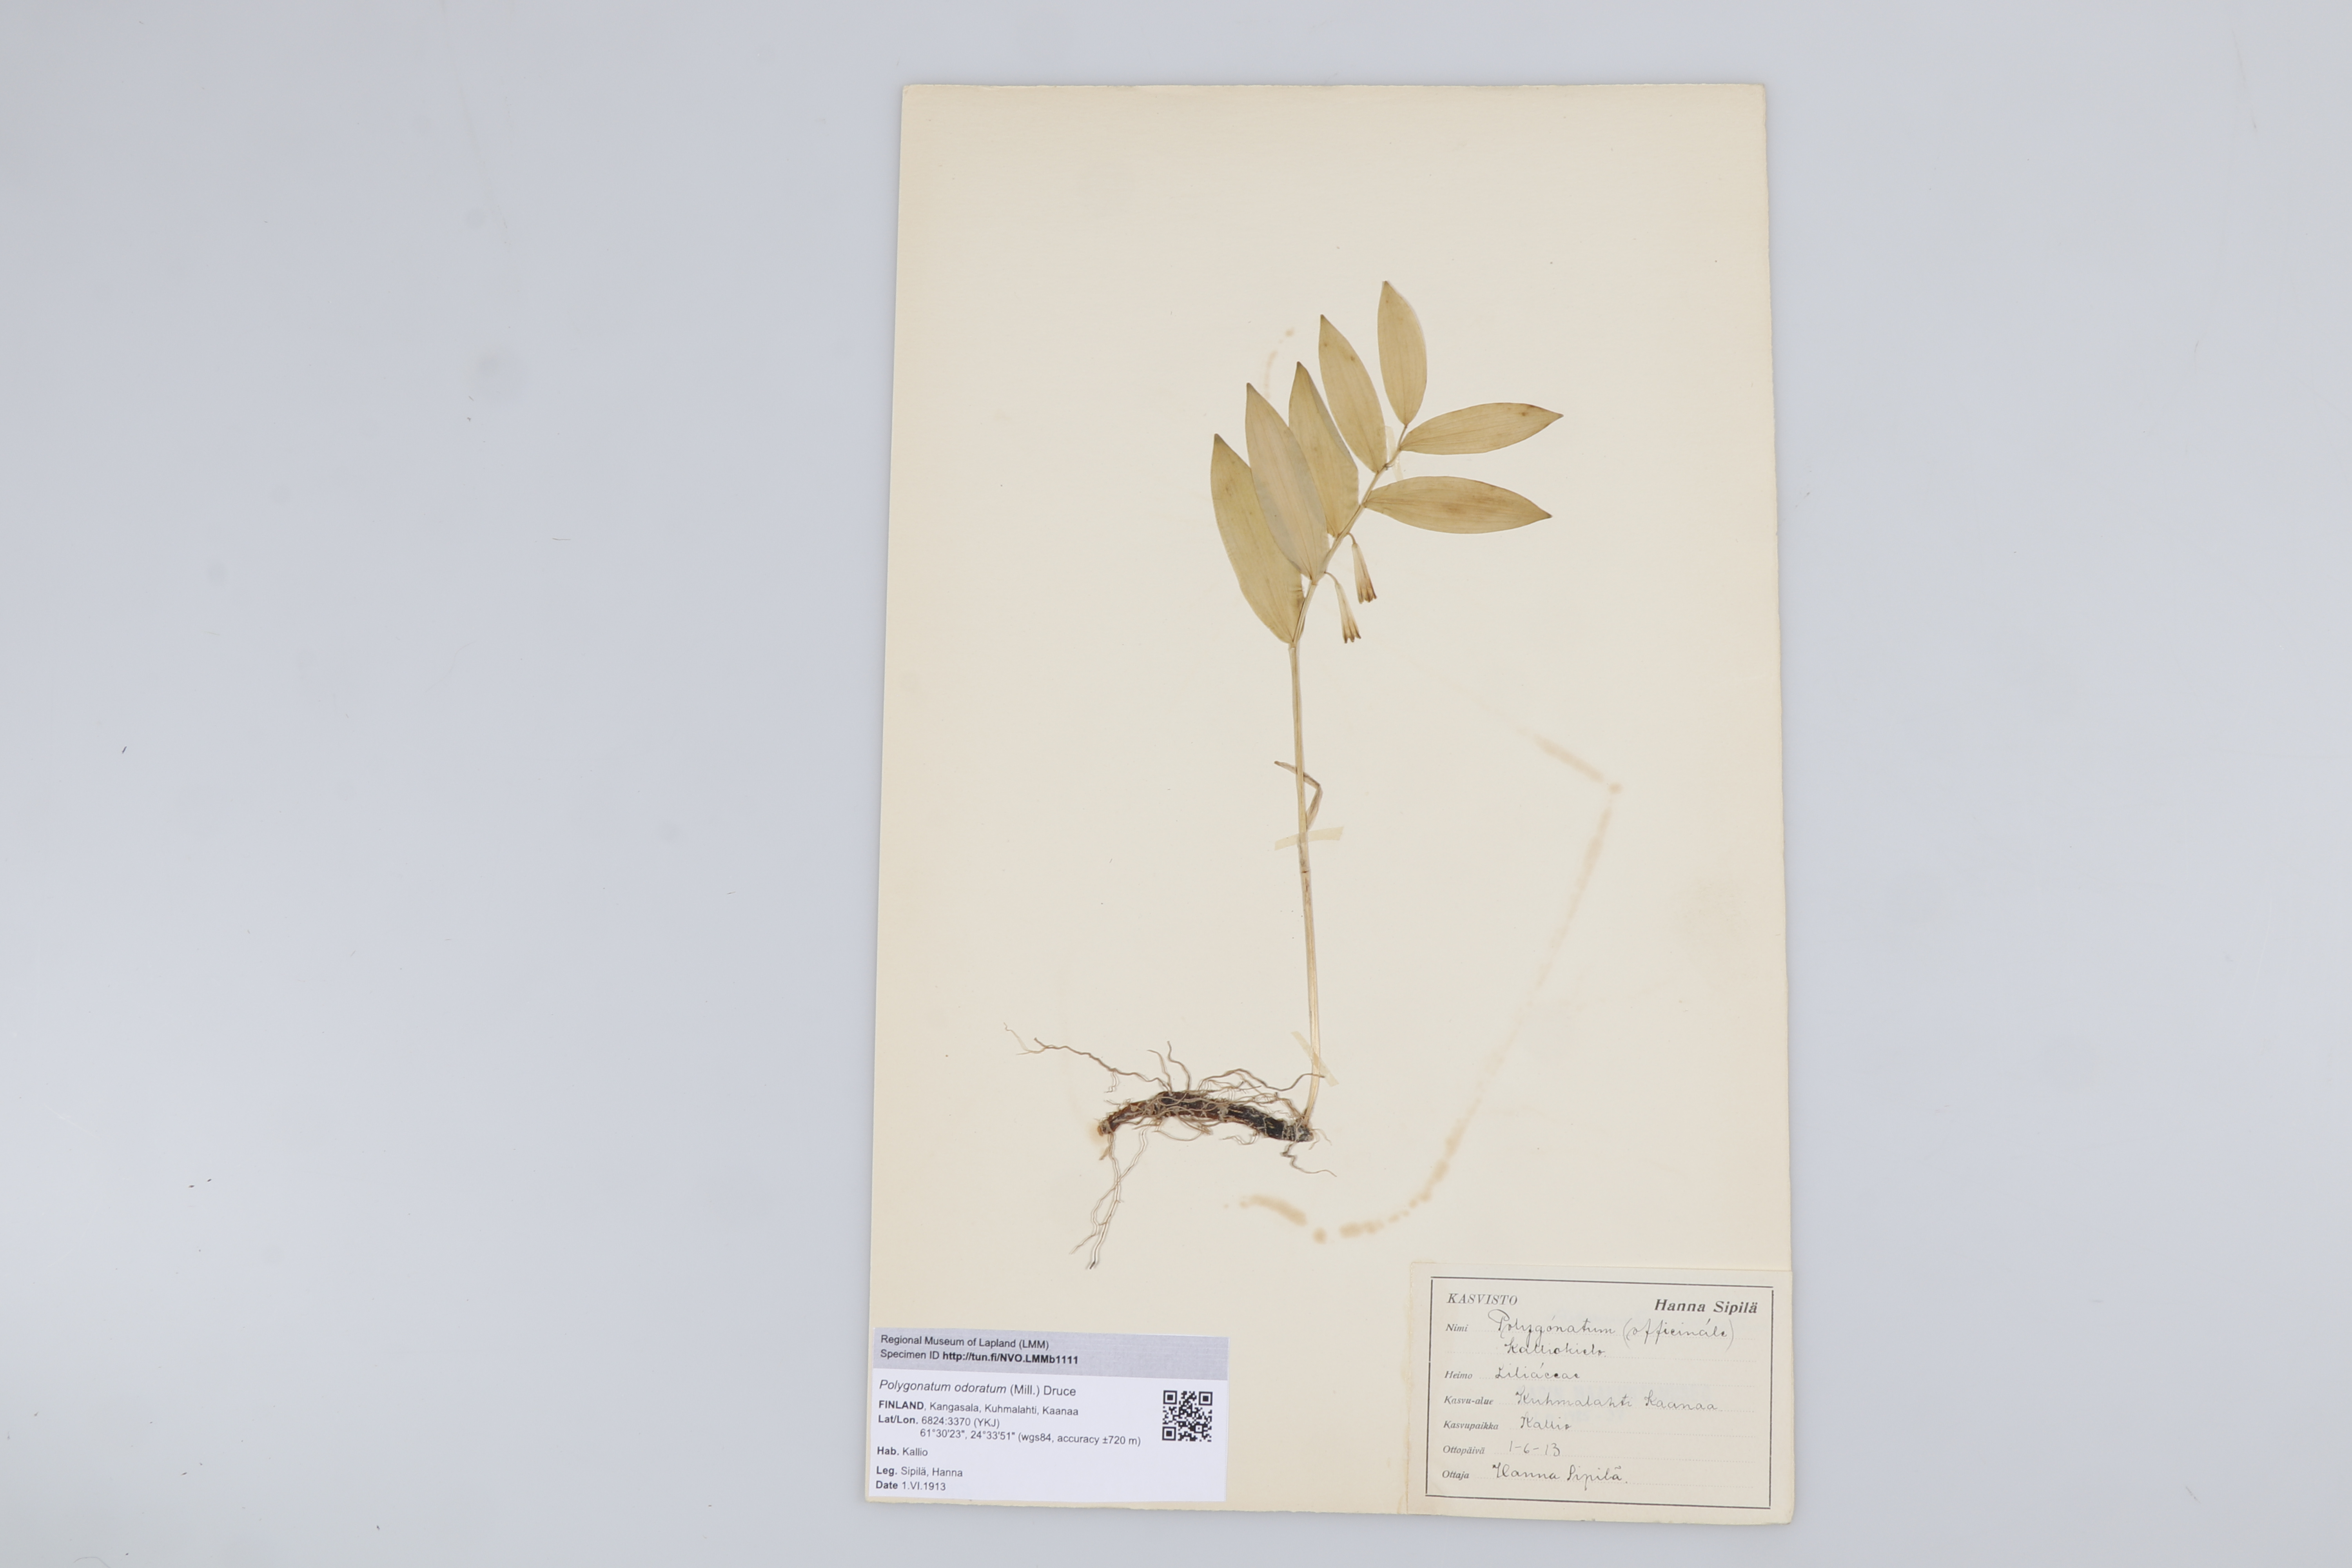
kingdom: Plantae
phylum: Tracheophyta
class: Liliopsida
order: Asparagales
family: Asparagaceae
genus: Polygonatum
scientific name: Polygonatum odoratum
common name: Angular solomon's-seal
